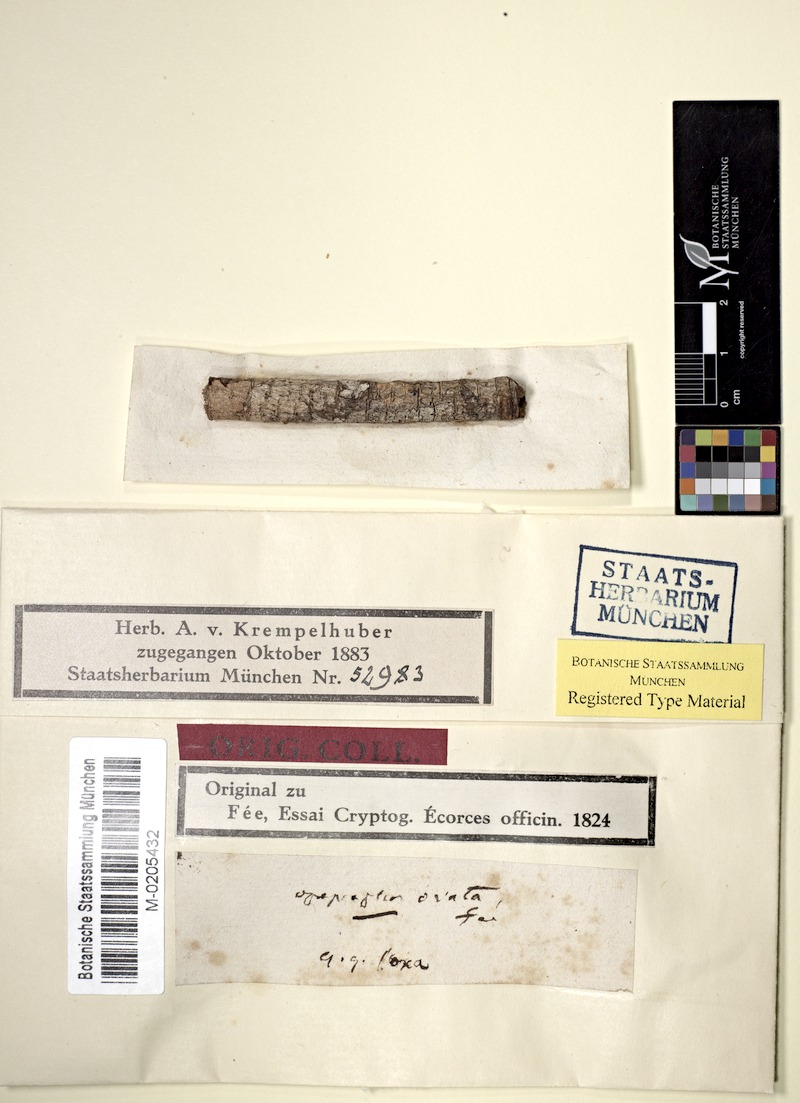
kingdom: Fungi
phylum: Ascomycota
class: Lecanoromycetes
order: Ostropales
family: Graphidaceae
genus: Allographa
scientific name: Allographa ovata
